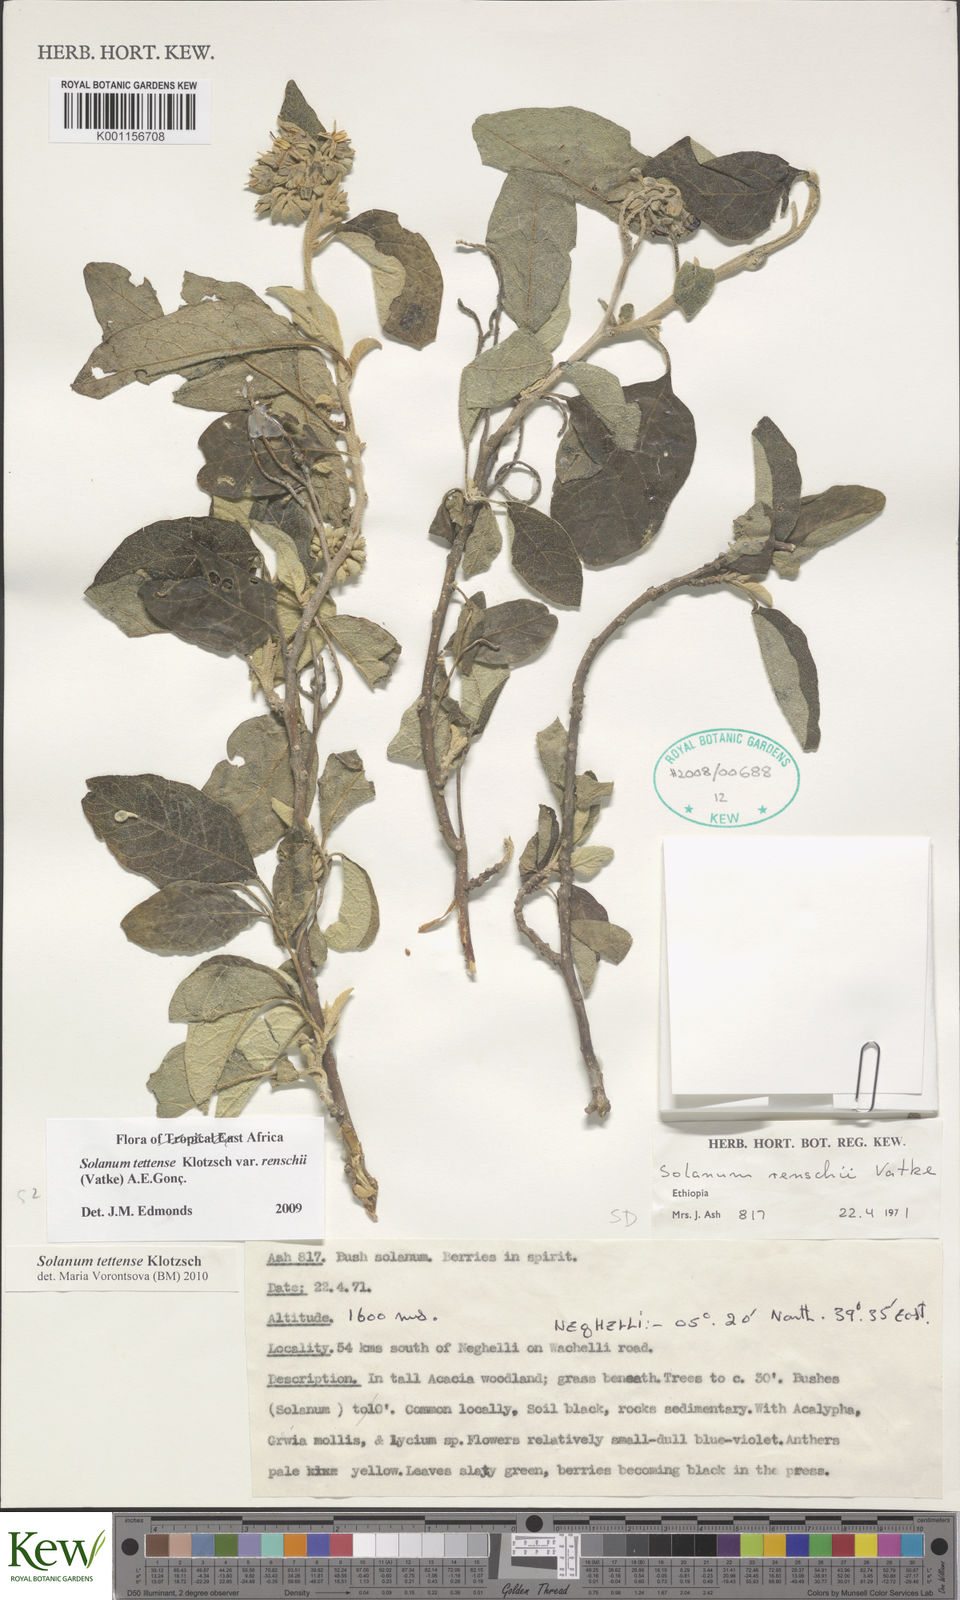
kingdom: Plantae
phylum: Tracheophyta
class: Magnoliopsida
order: Solanales
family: Solanaceae
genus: Solanum
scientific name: Solanum tettense
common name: Mozambique bitter apple
